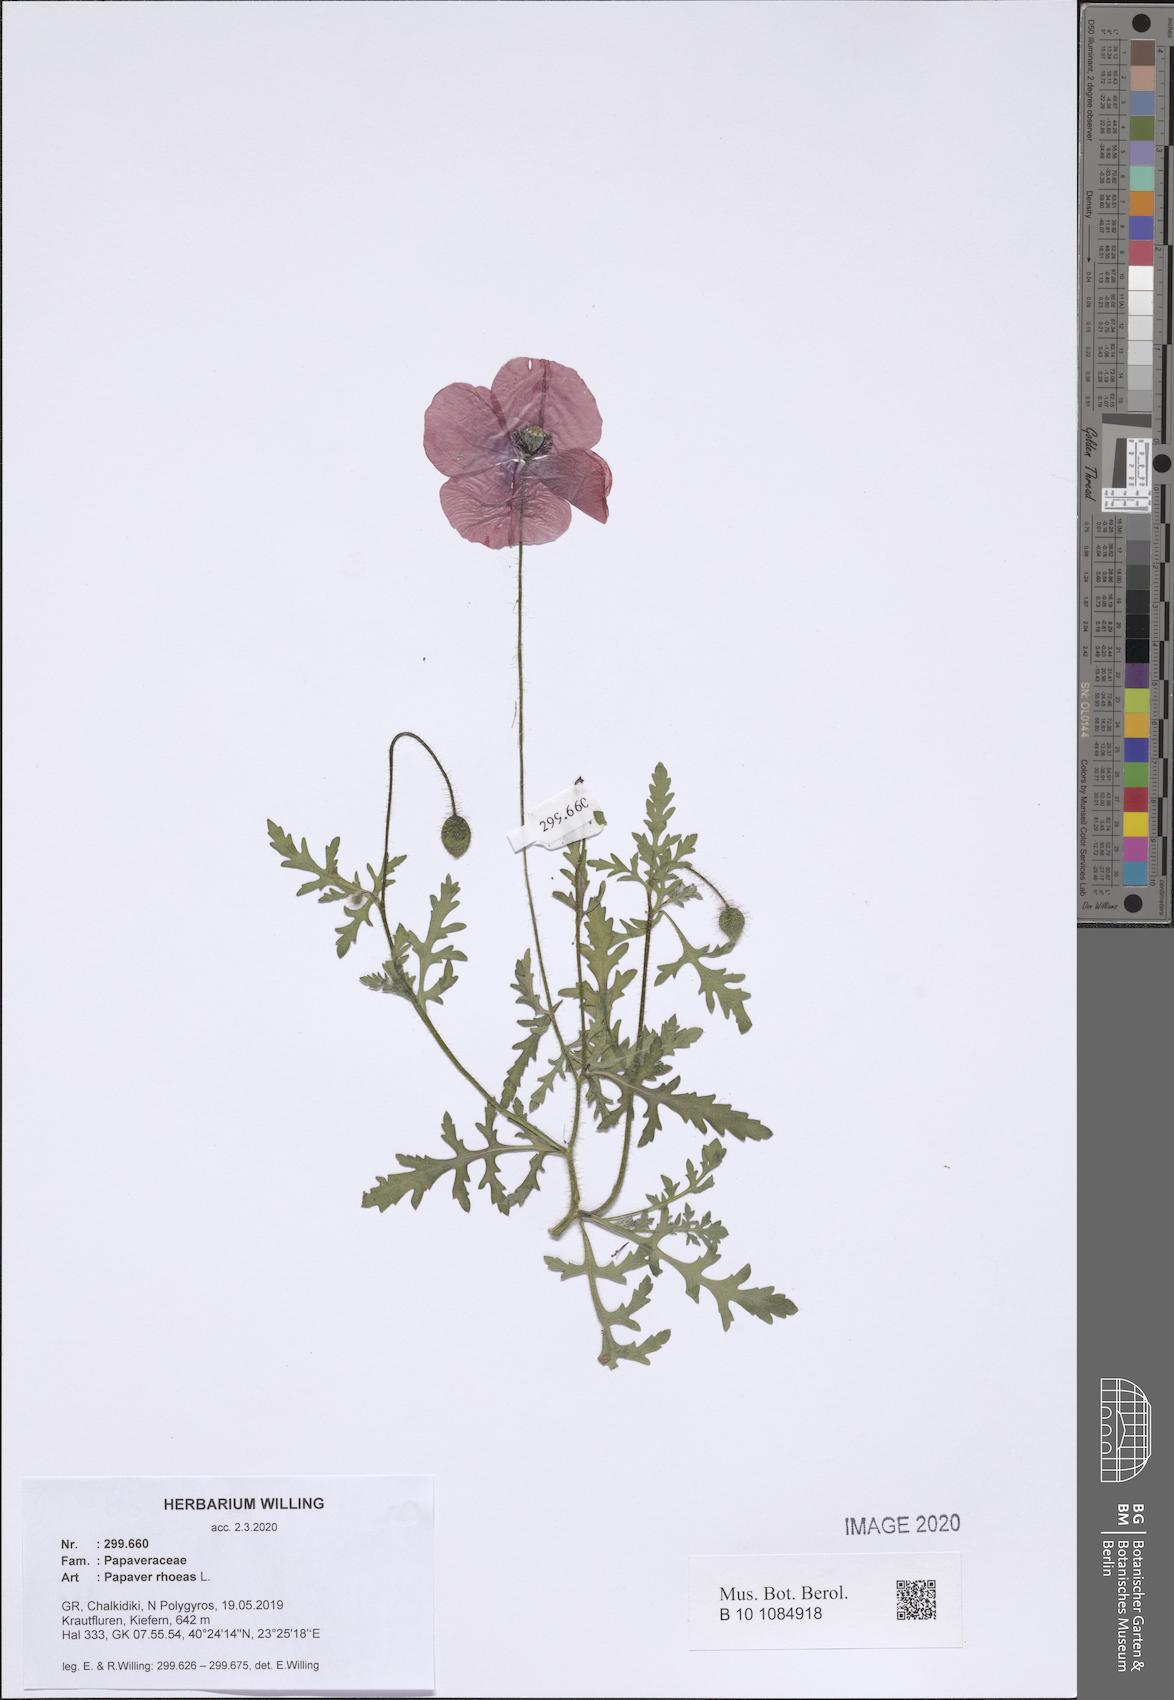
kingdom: Plantae
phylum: Tracheophyta
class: Magnoliopsida
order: Ranunculales
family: Papaveraceae
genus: Papaver
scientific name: Papaver rhoeas
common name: Corn poppy
